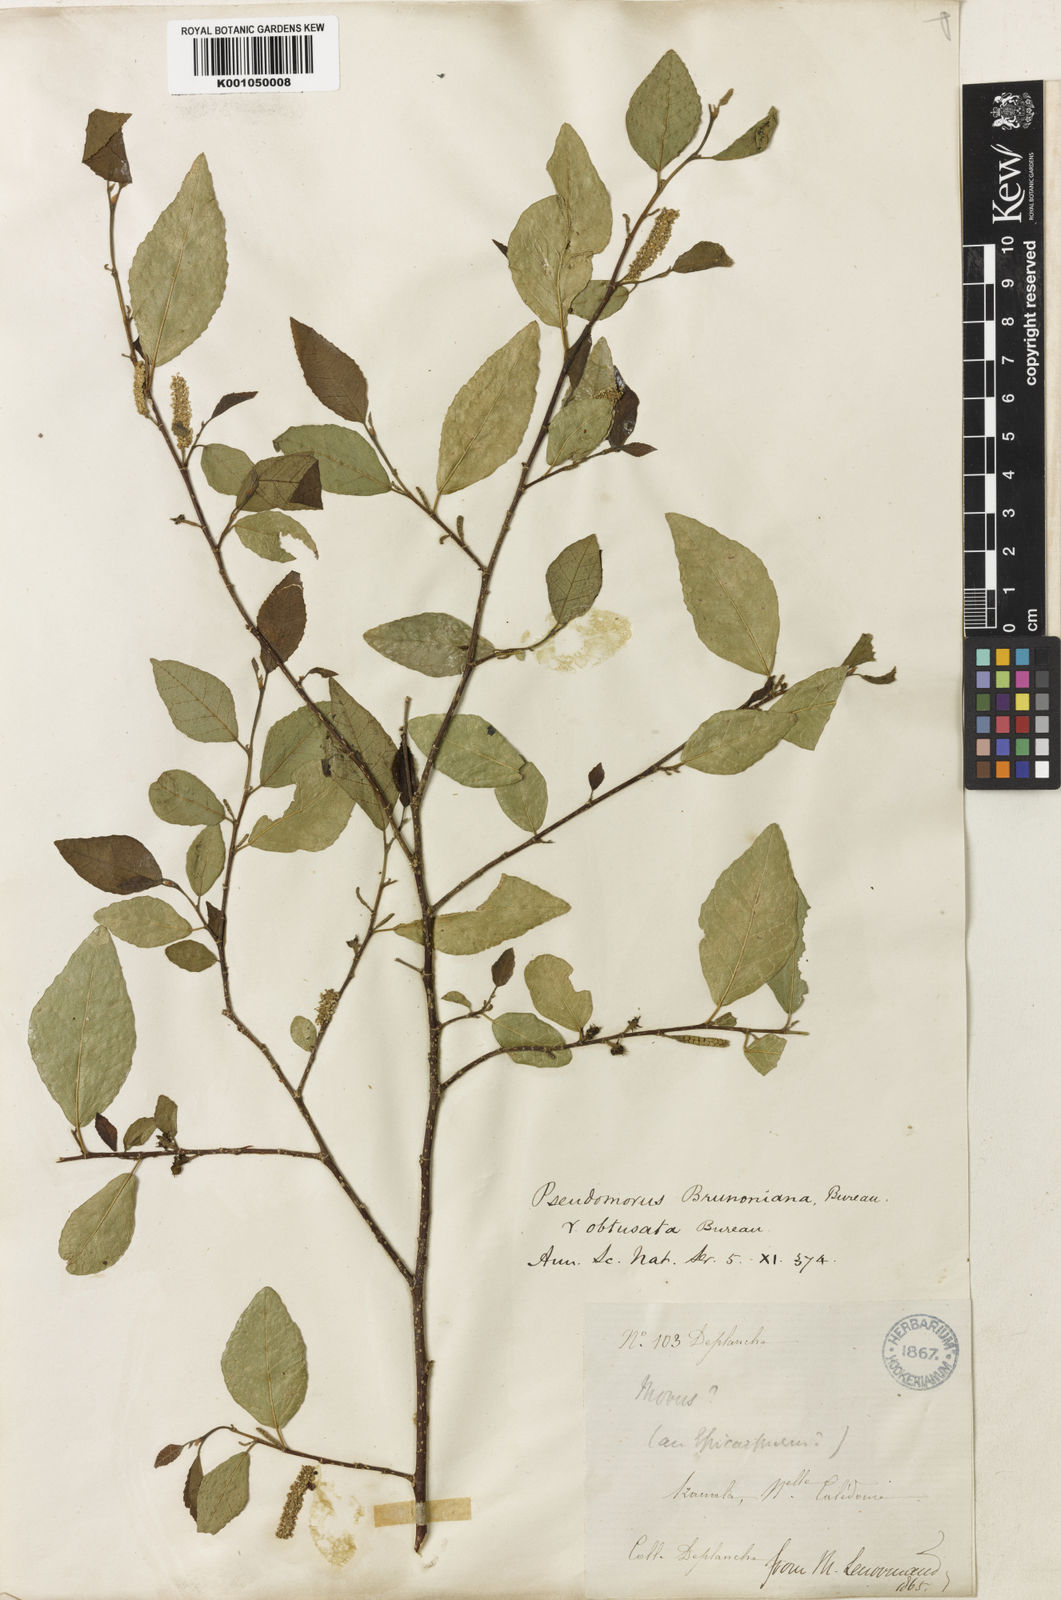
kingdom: Plantae
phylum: Tracheophyta
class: Magnoliopsida
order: Rosales
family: Moraceae
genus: Paratrophis
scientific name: Paratrophis pendulina
